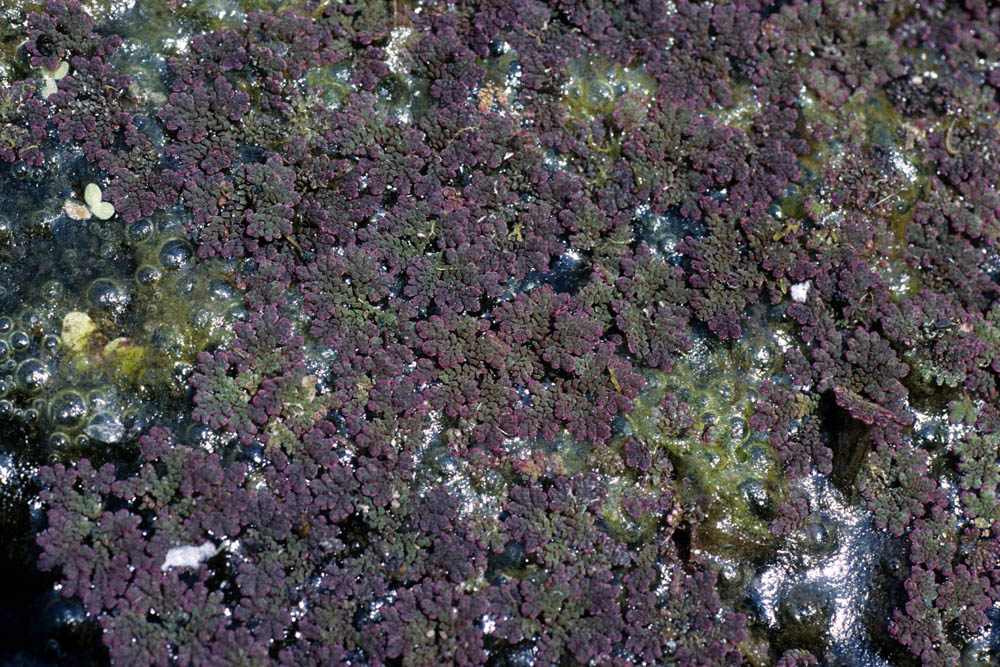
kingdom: Plantae
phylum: Tracheophyta
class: Polypodiopsida
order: Salviniales
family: Salviniaceae
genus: Azolla
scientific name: Azolla
